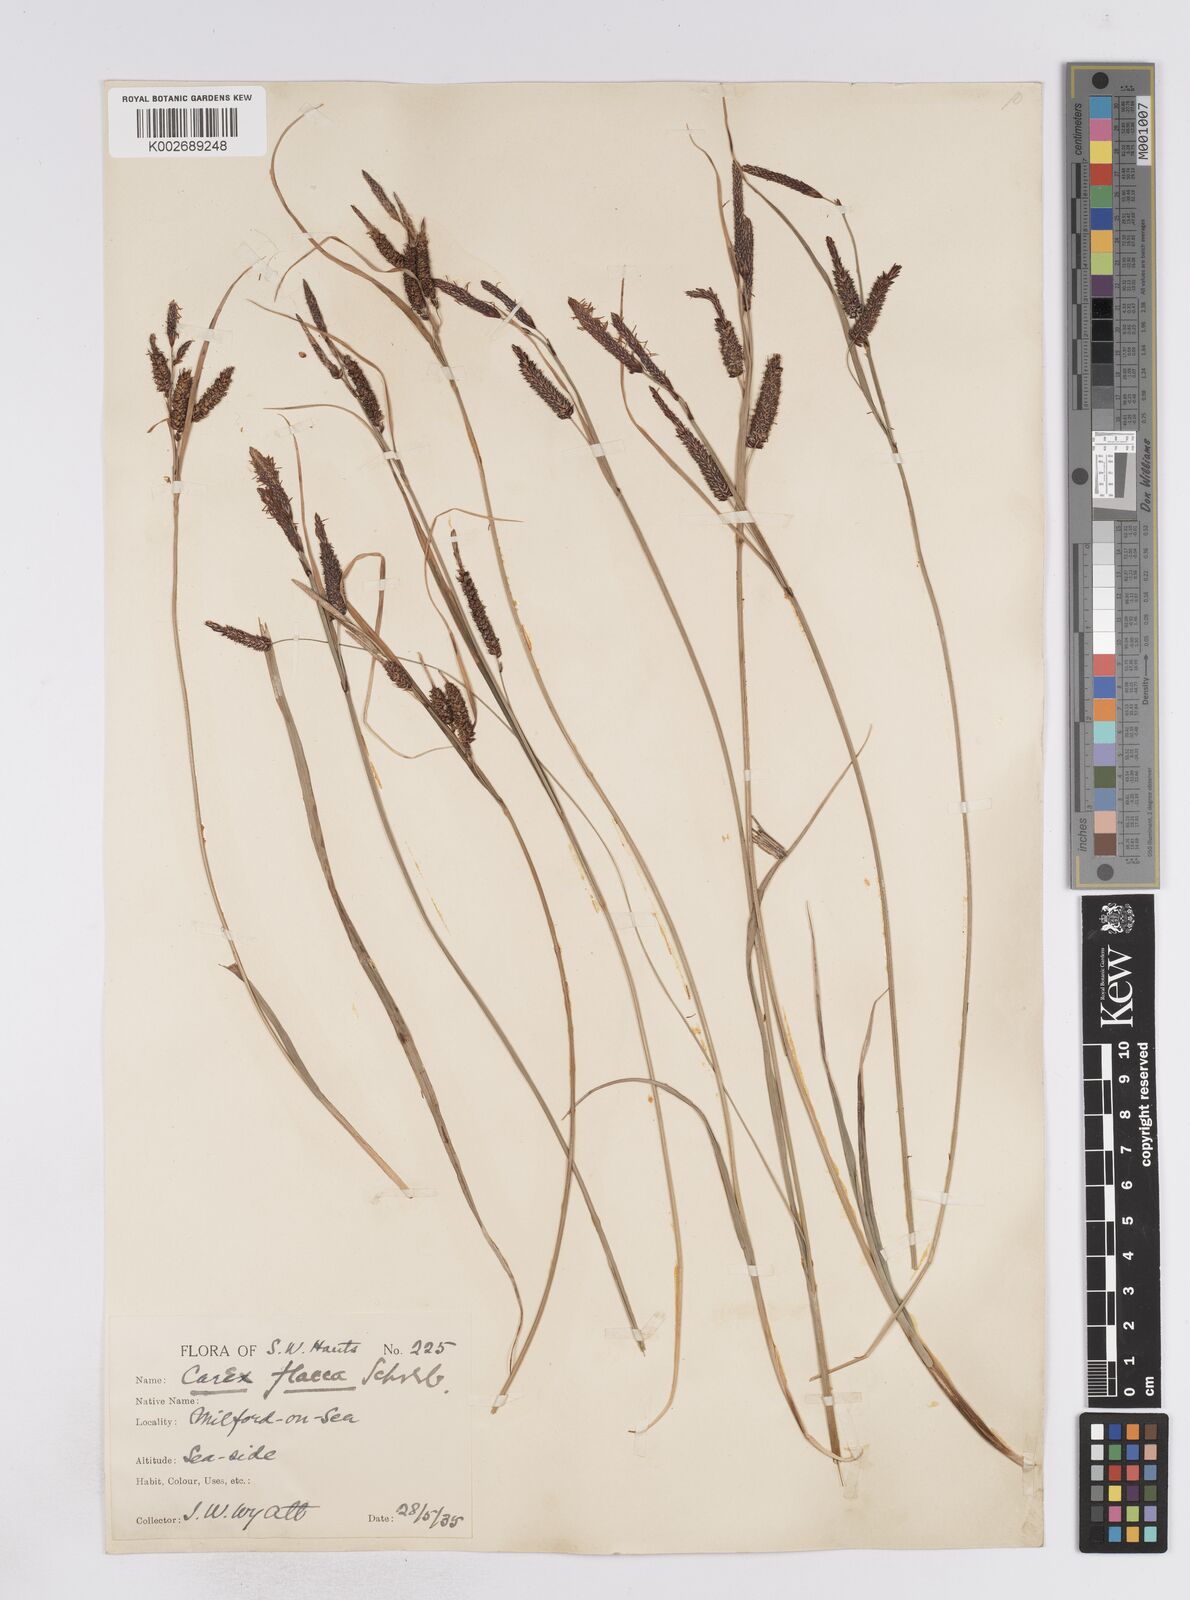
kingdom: Plantae
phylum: Tracheophyta
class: Liliopsida
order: Poales
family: Cyperaceae
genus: Carex
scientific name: Carex flacca
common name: Glaucous sedge
